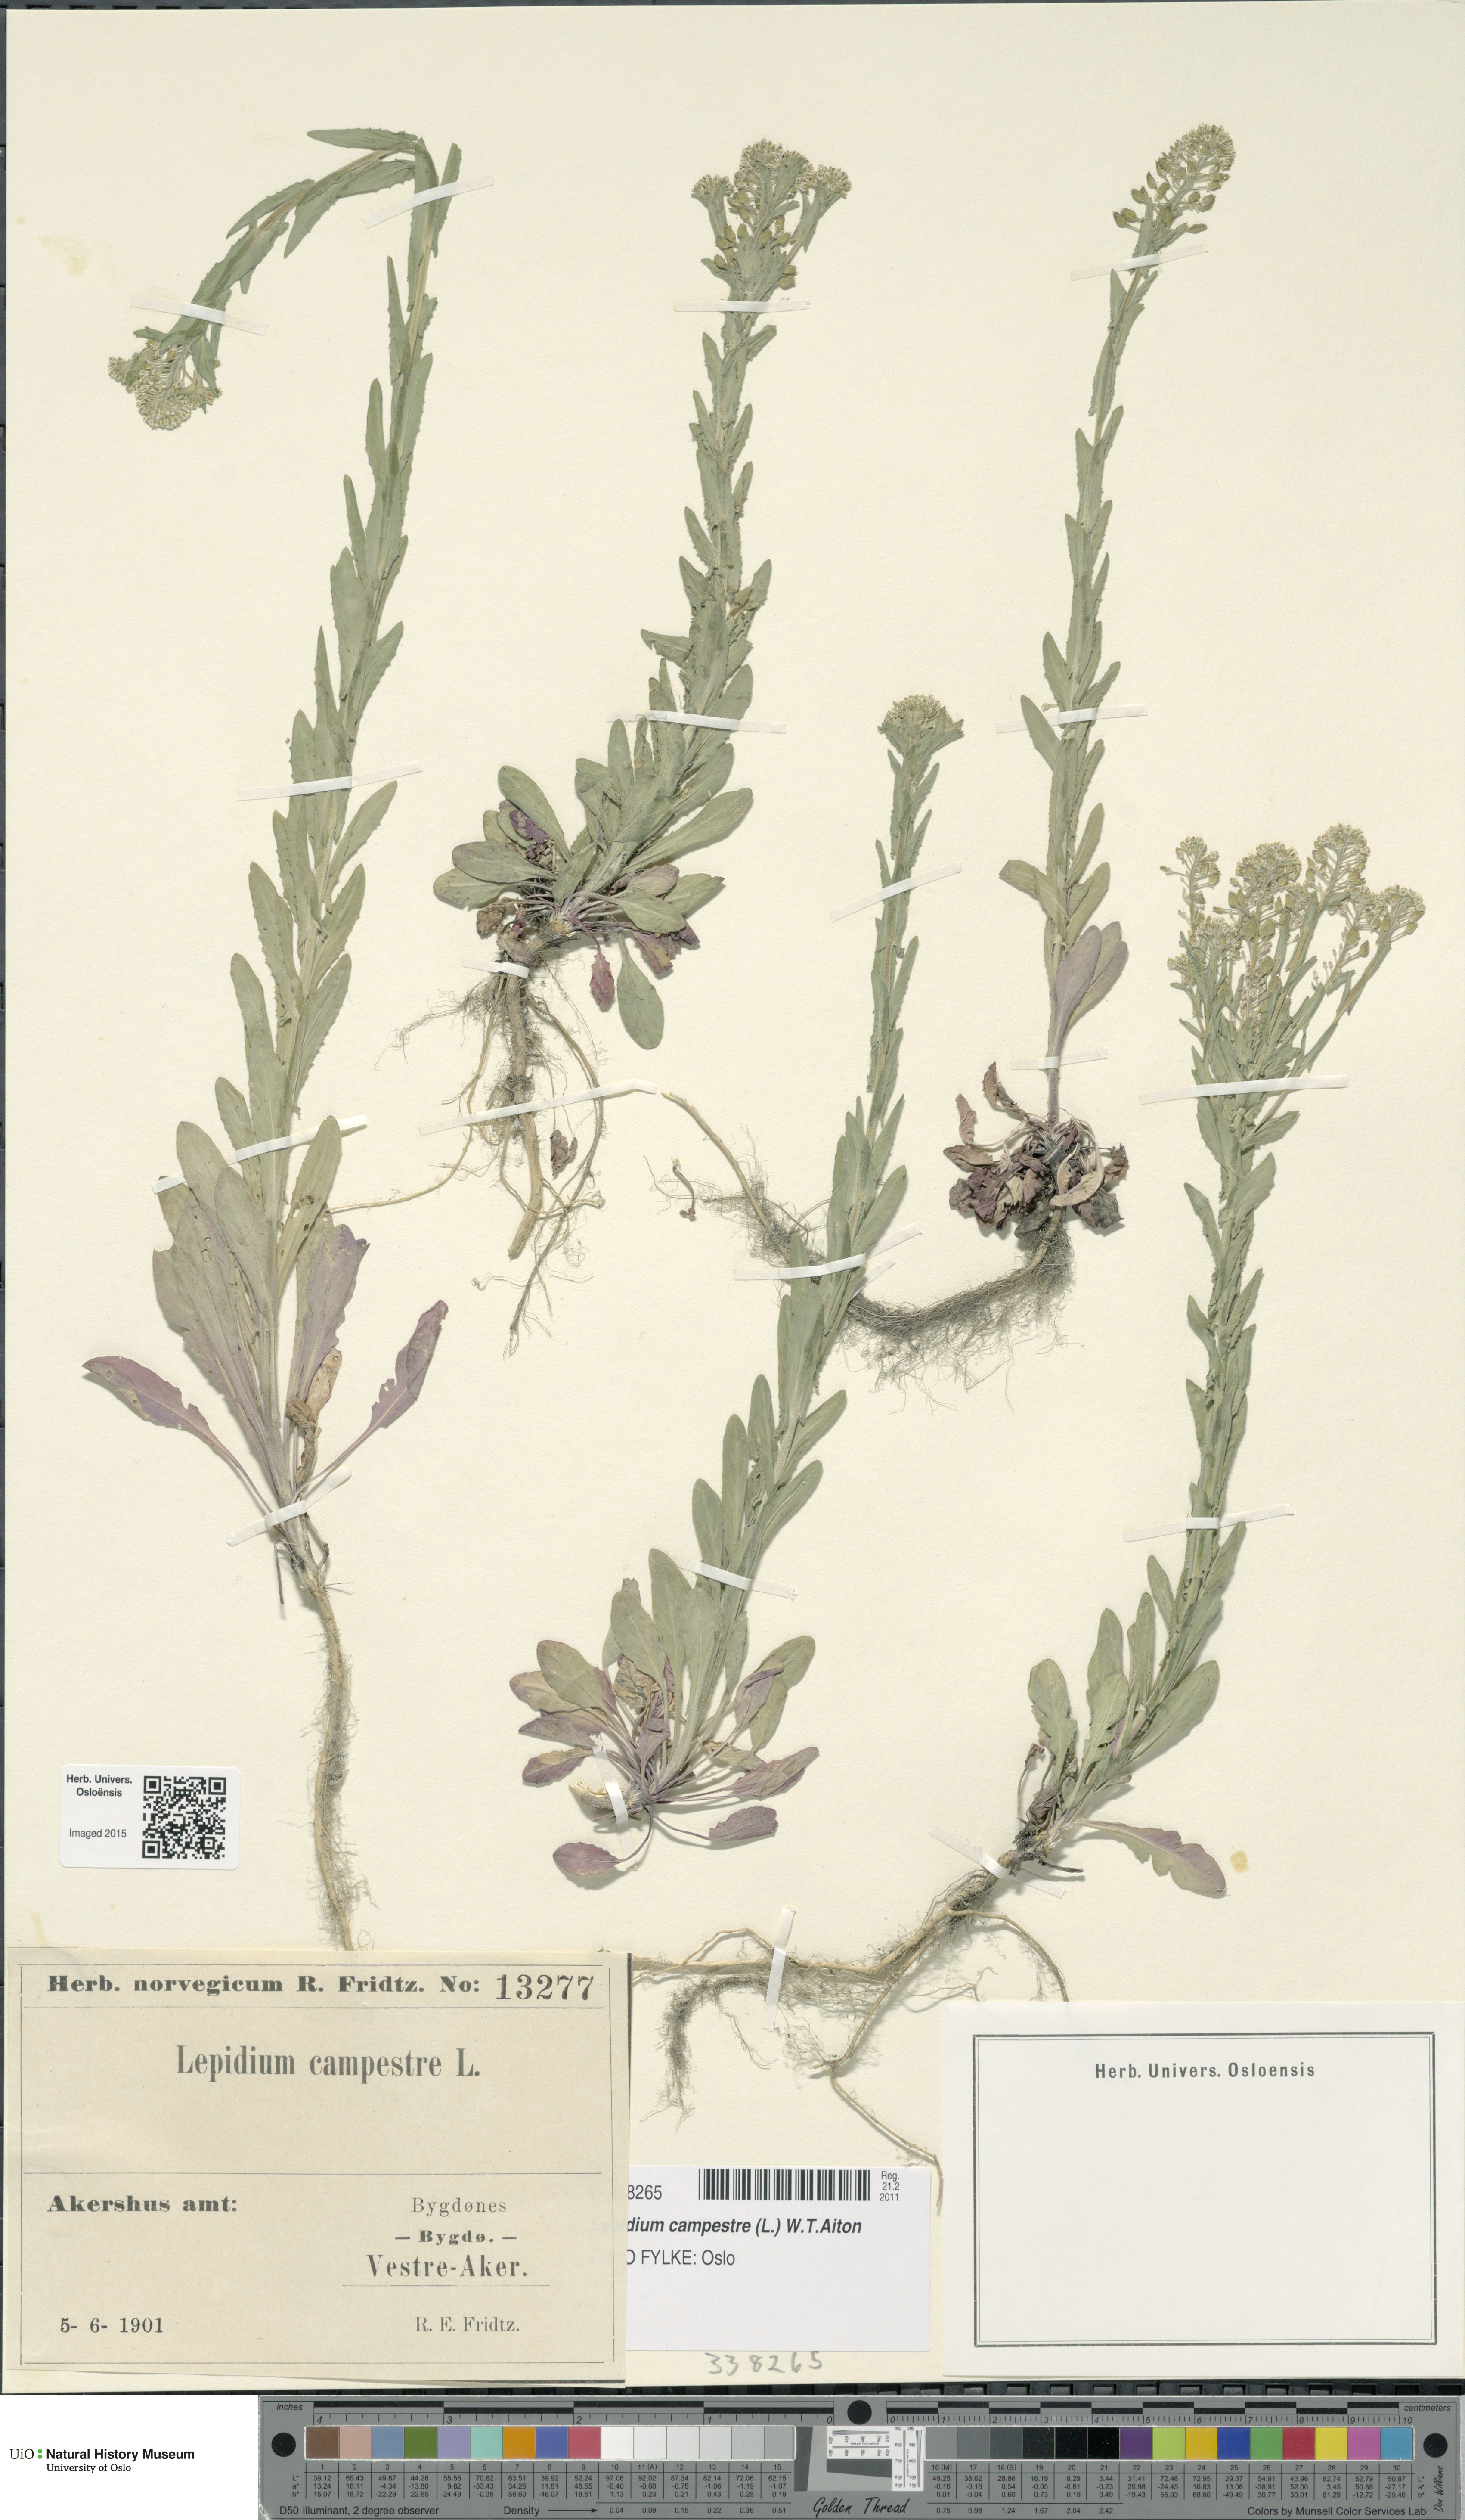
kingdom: Plantae
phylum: Tracheophyta
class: Magnoliopsida
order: Brassicales
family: Brassicaceae
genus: Lepidium
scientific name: Lepidium campestre
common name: Field pepperwort
